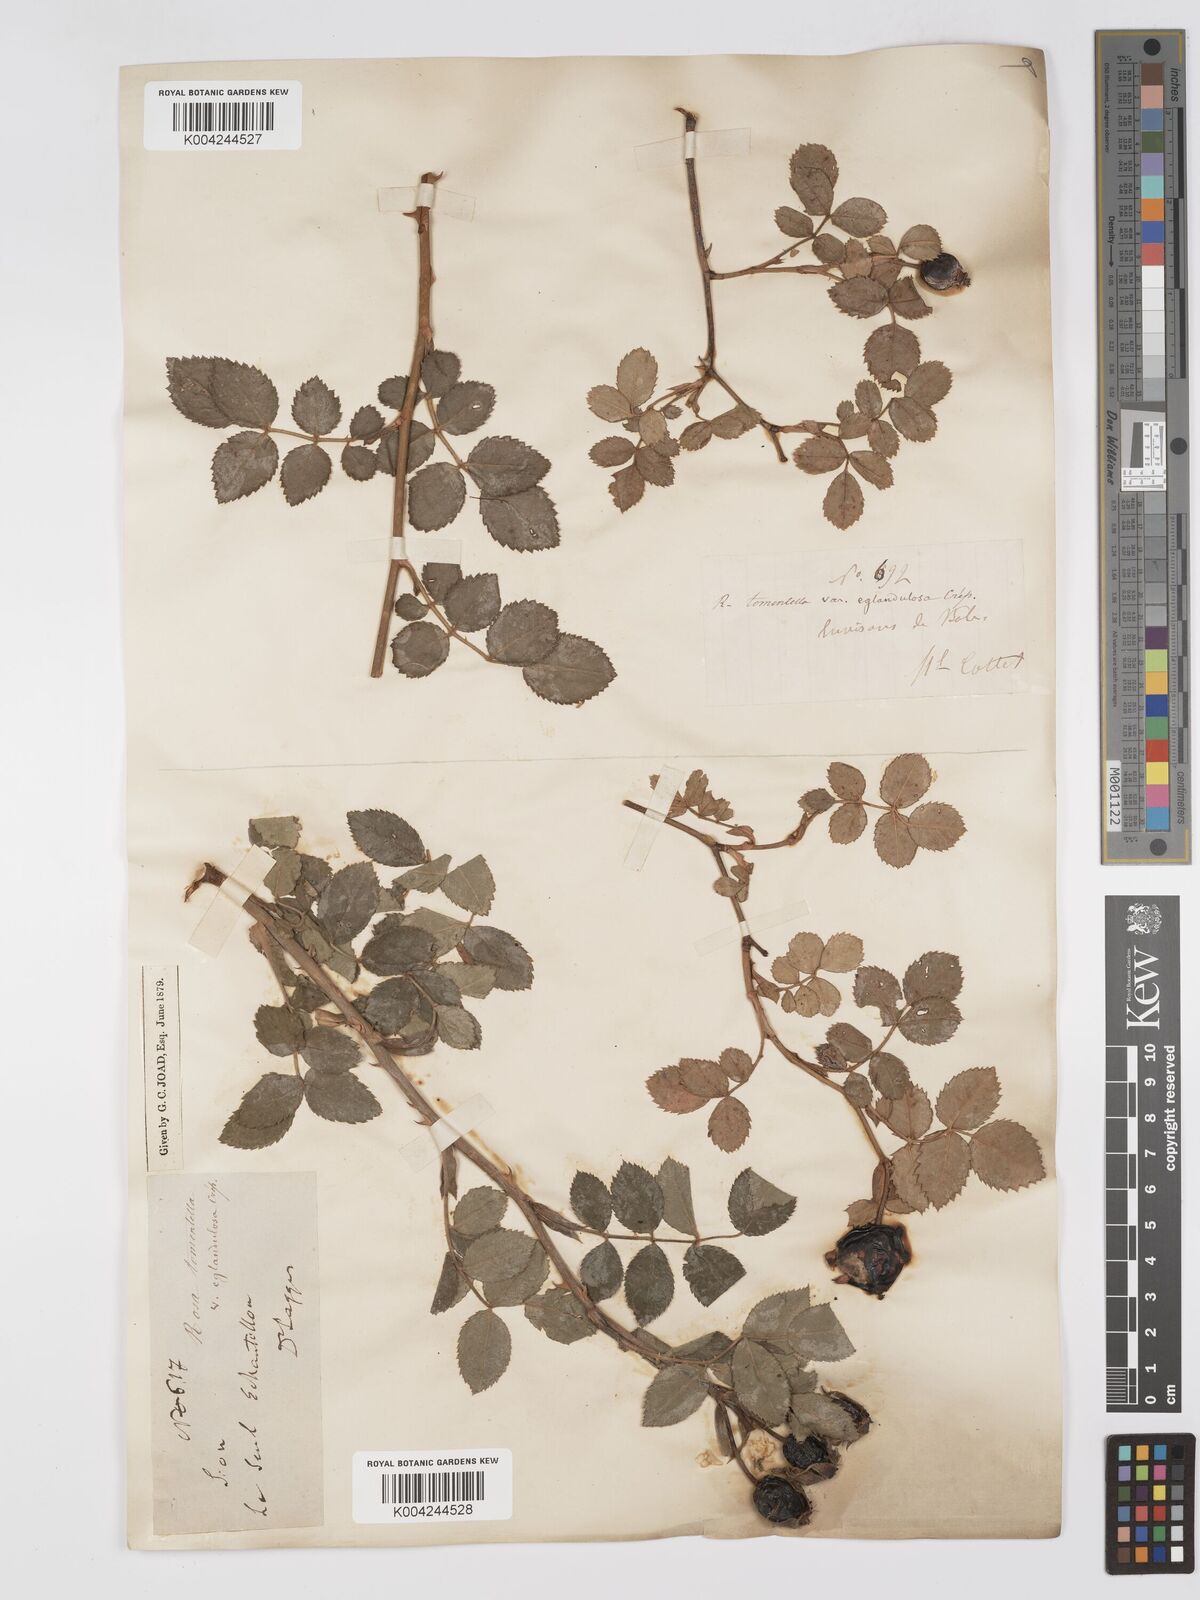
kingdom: Plantae
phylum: Tracheophyta
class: Magnoliopsida
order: Rosales
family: Rosaceae
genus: Rosa
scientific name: Rosa
